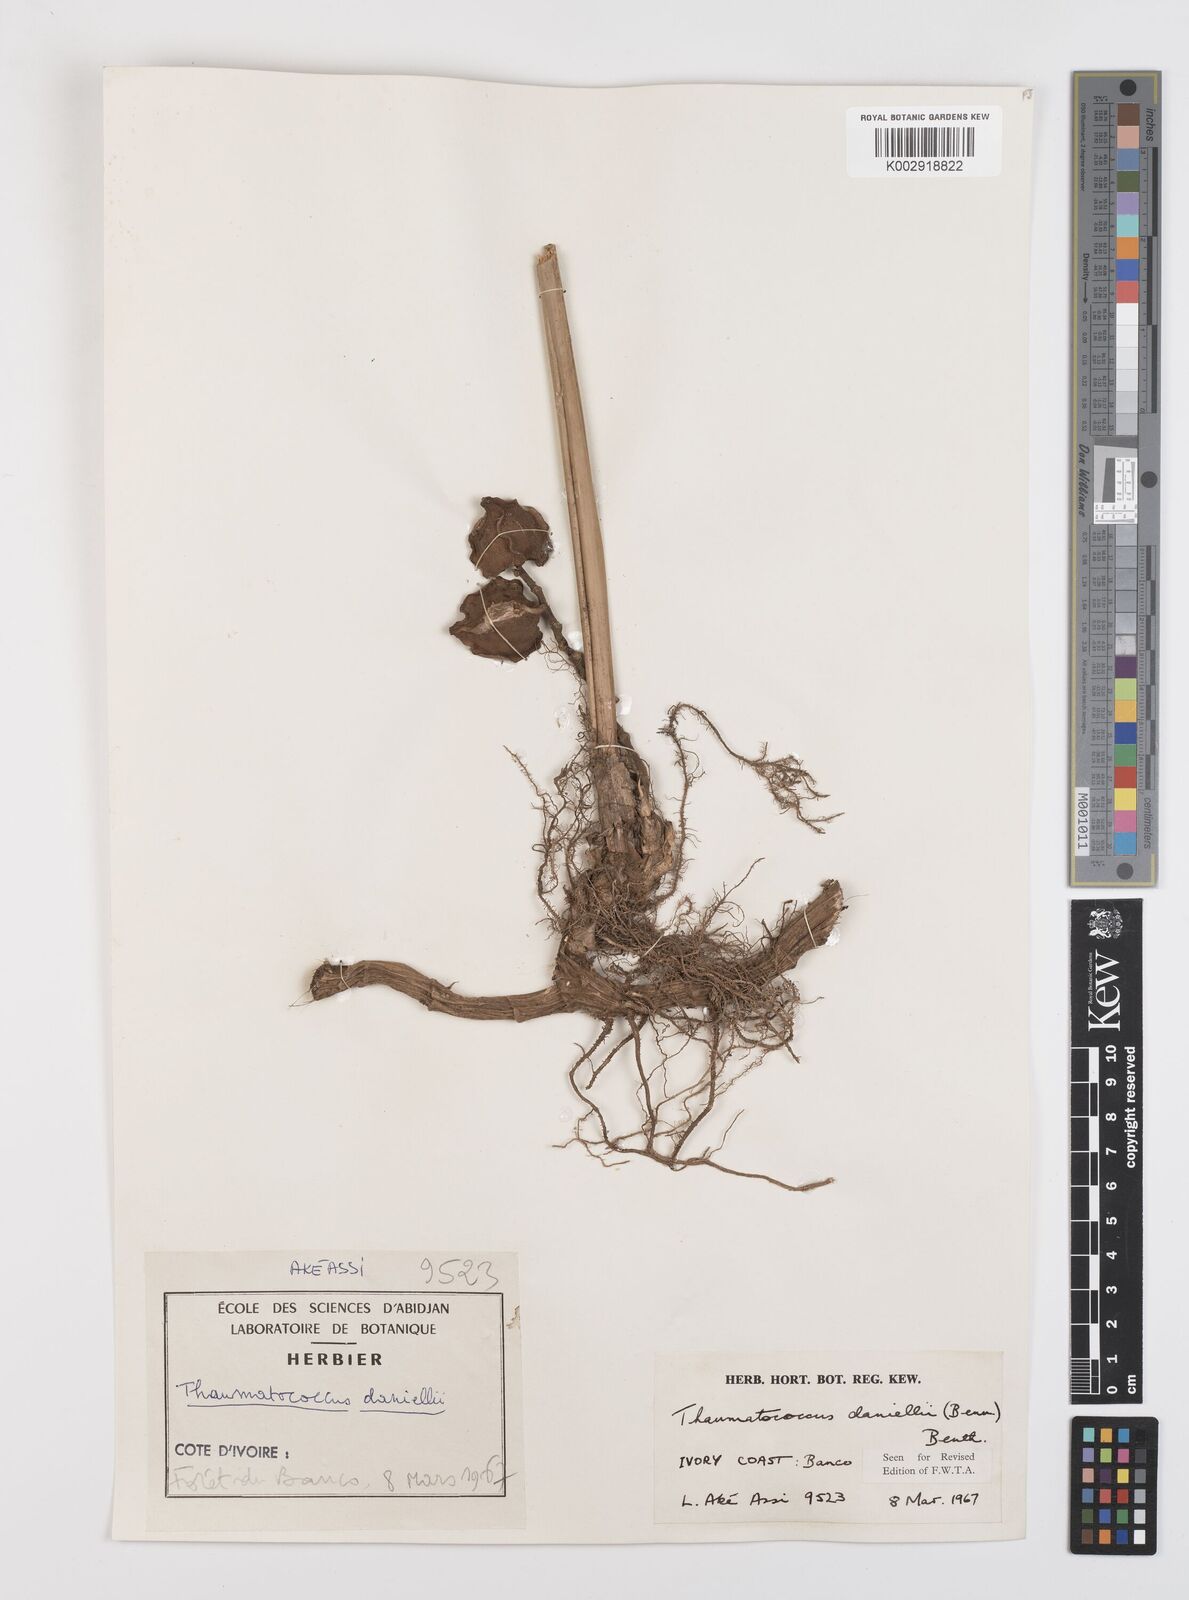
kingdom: Plantae
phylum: Tracheophyta
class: Liliopsida
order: Zingiberales
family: Marantaceae
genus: Thaumatococcus
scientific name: Thaumatococcus daniellii
